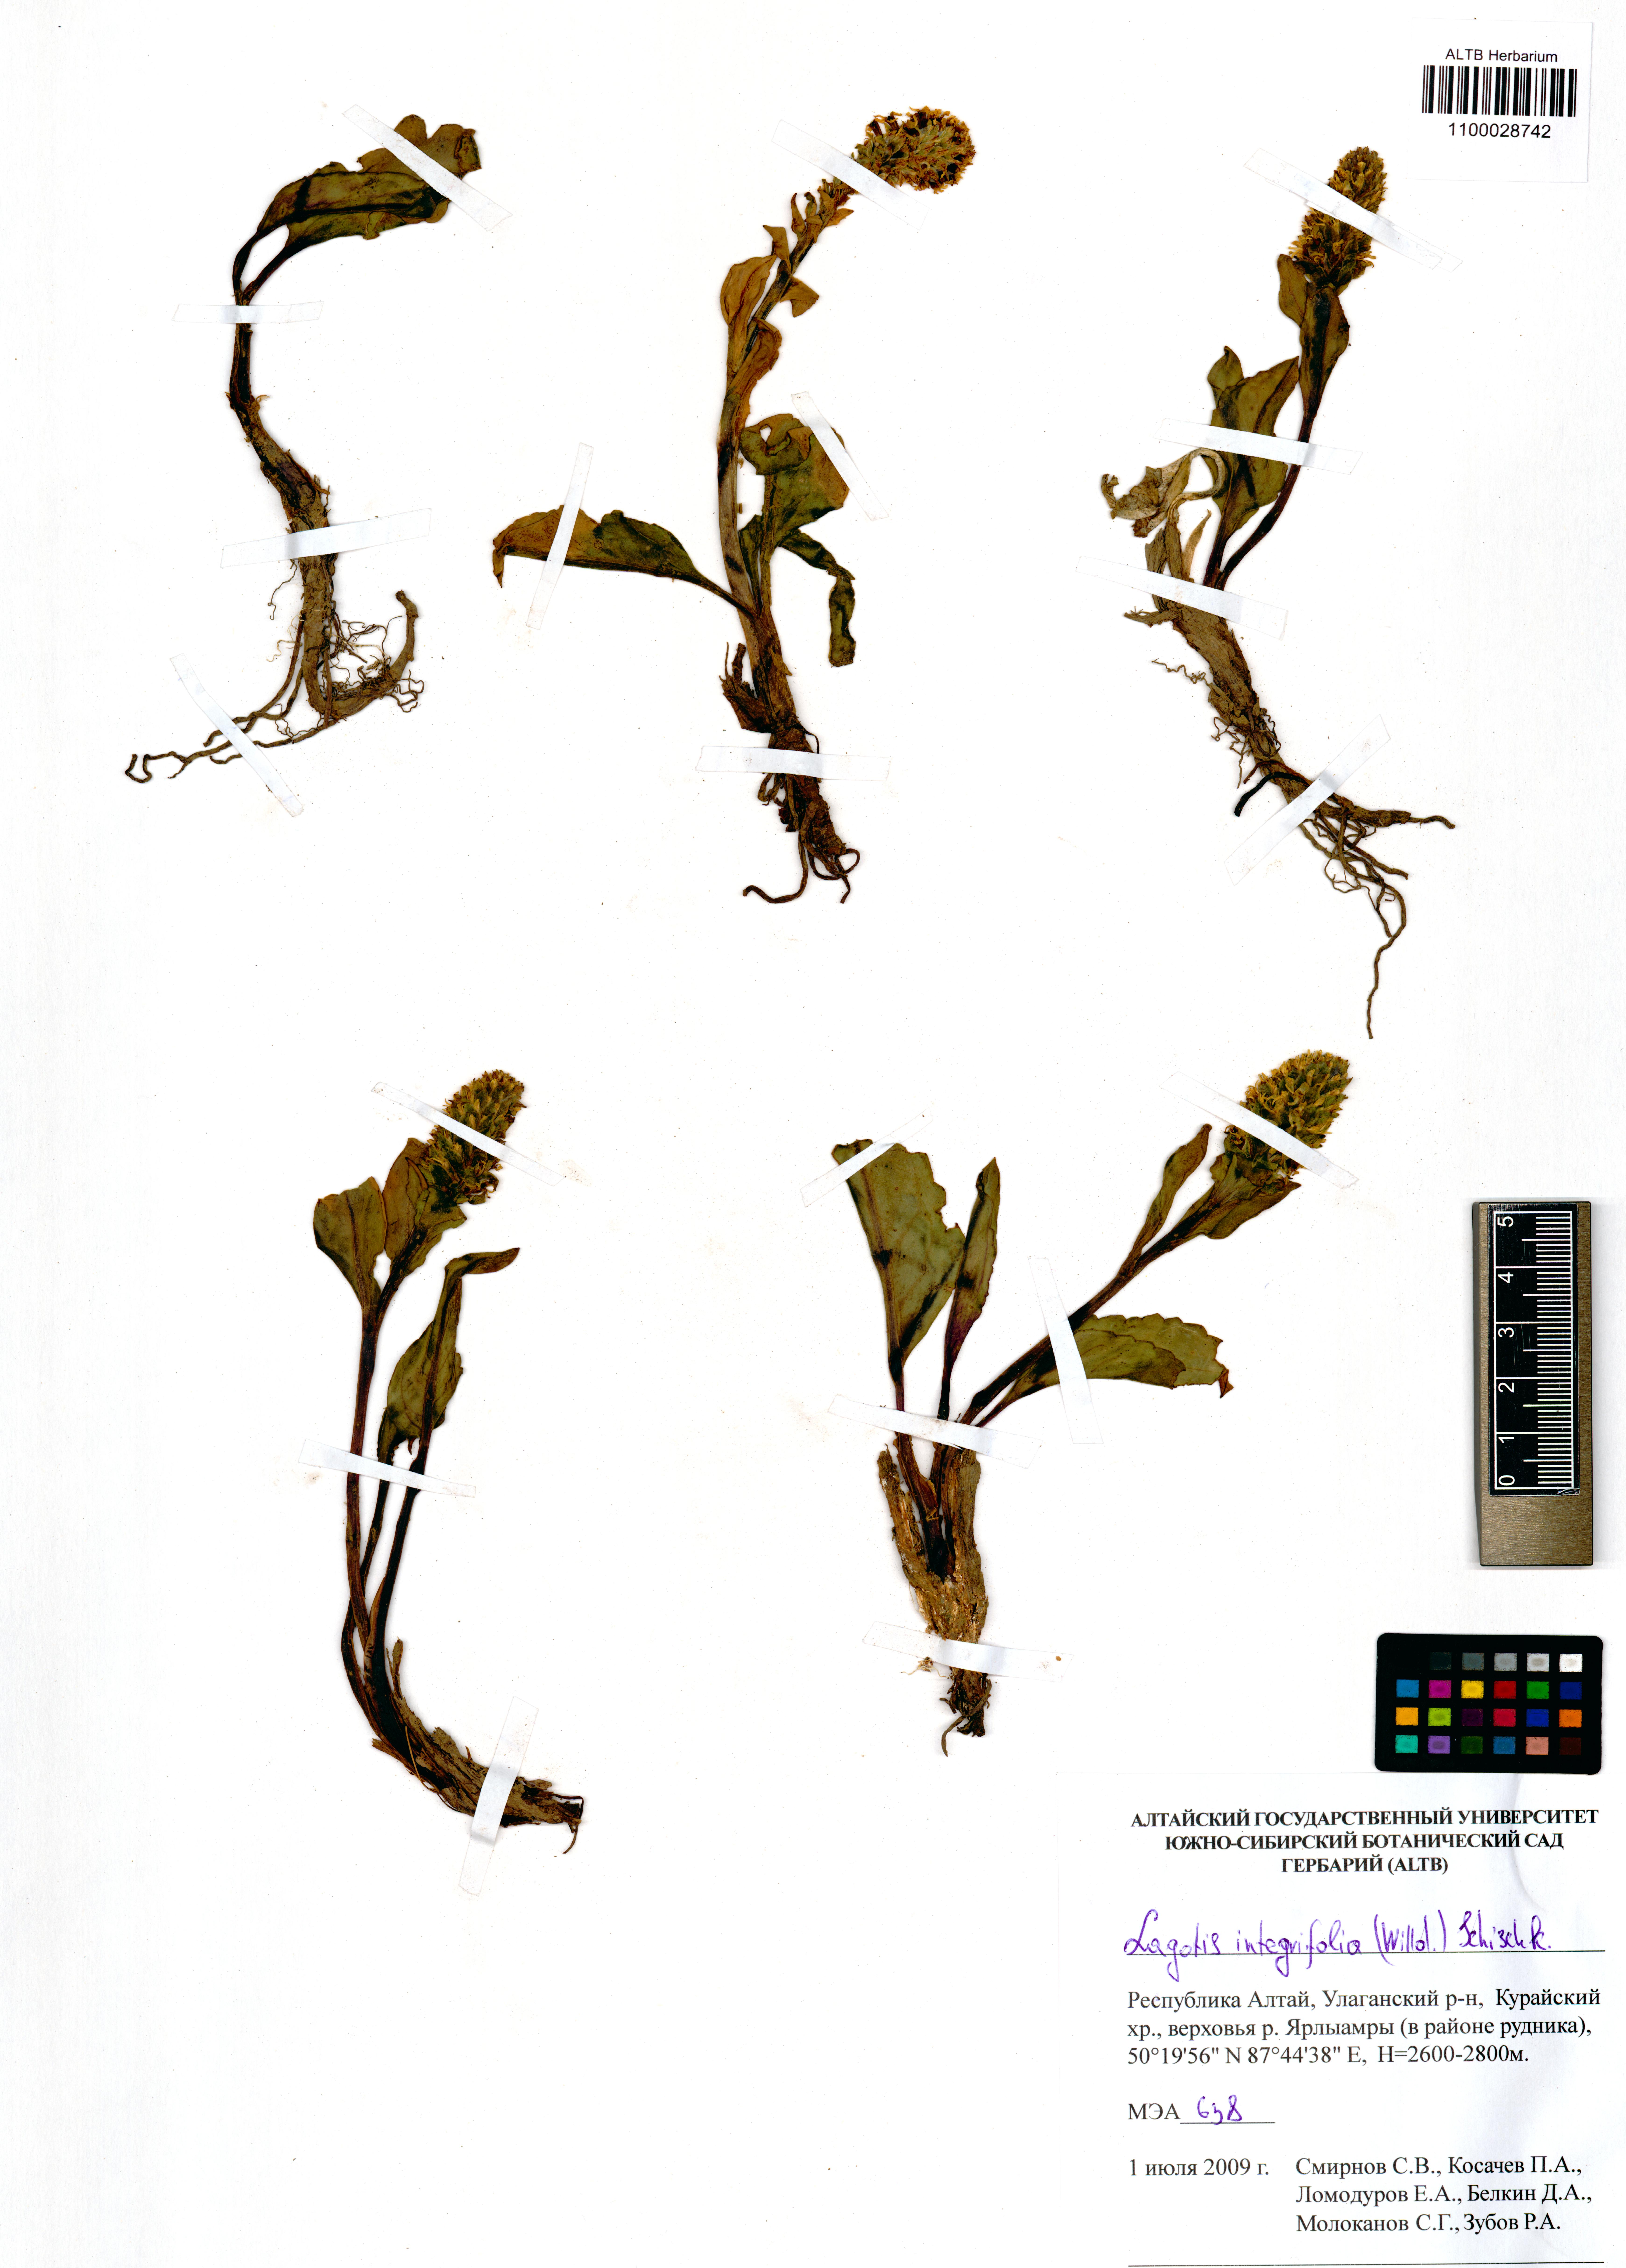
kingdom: Plantae
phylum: Tracheophyta
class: Magnoliopsida
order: Lamiales
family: Plantaginaceae
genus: Lagotis
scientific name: Lagotis integrifolia
